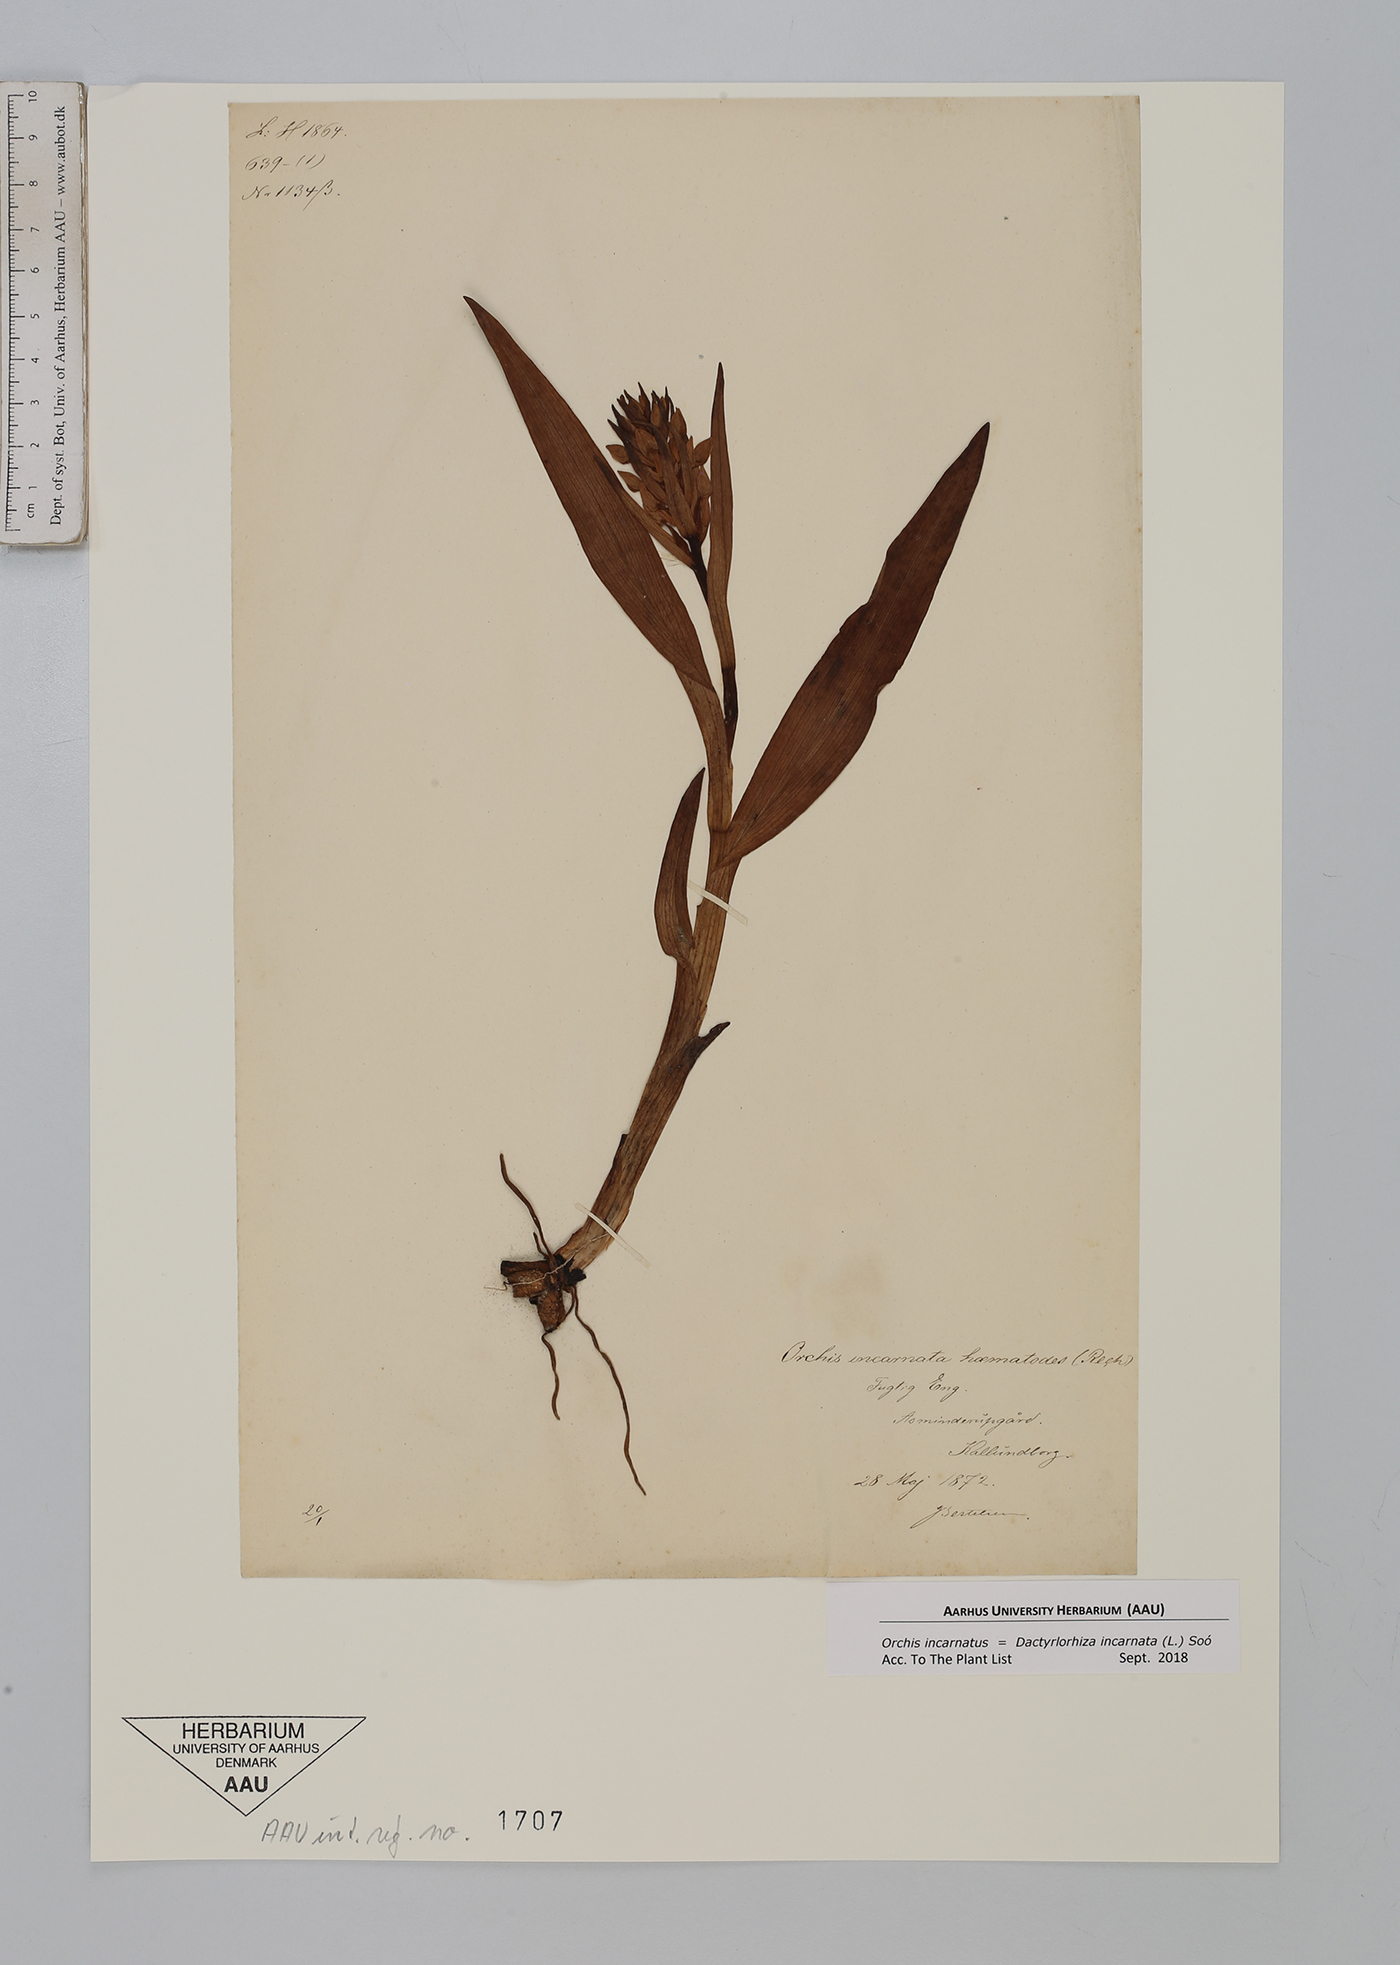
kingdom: Plantae
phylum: Tracheophyta
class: Liliopsida
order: Asparagales
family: Orchidaceae
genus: Dactylorhiza
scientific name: Dactylorhiza incarnata
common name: Early marsh-orchid
